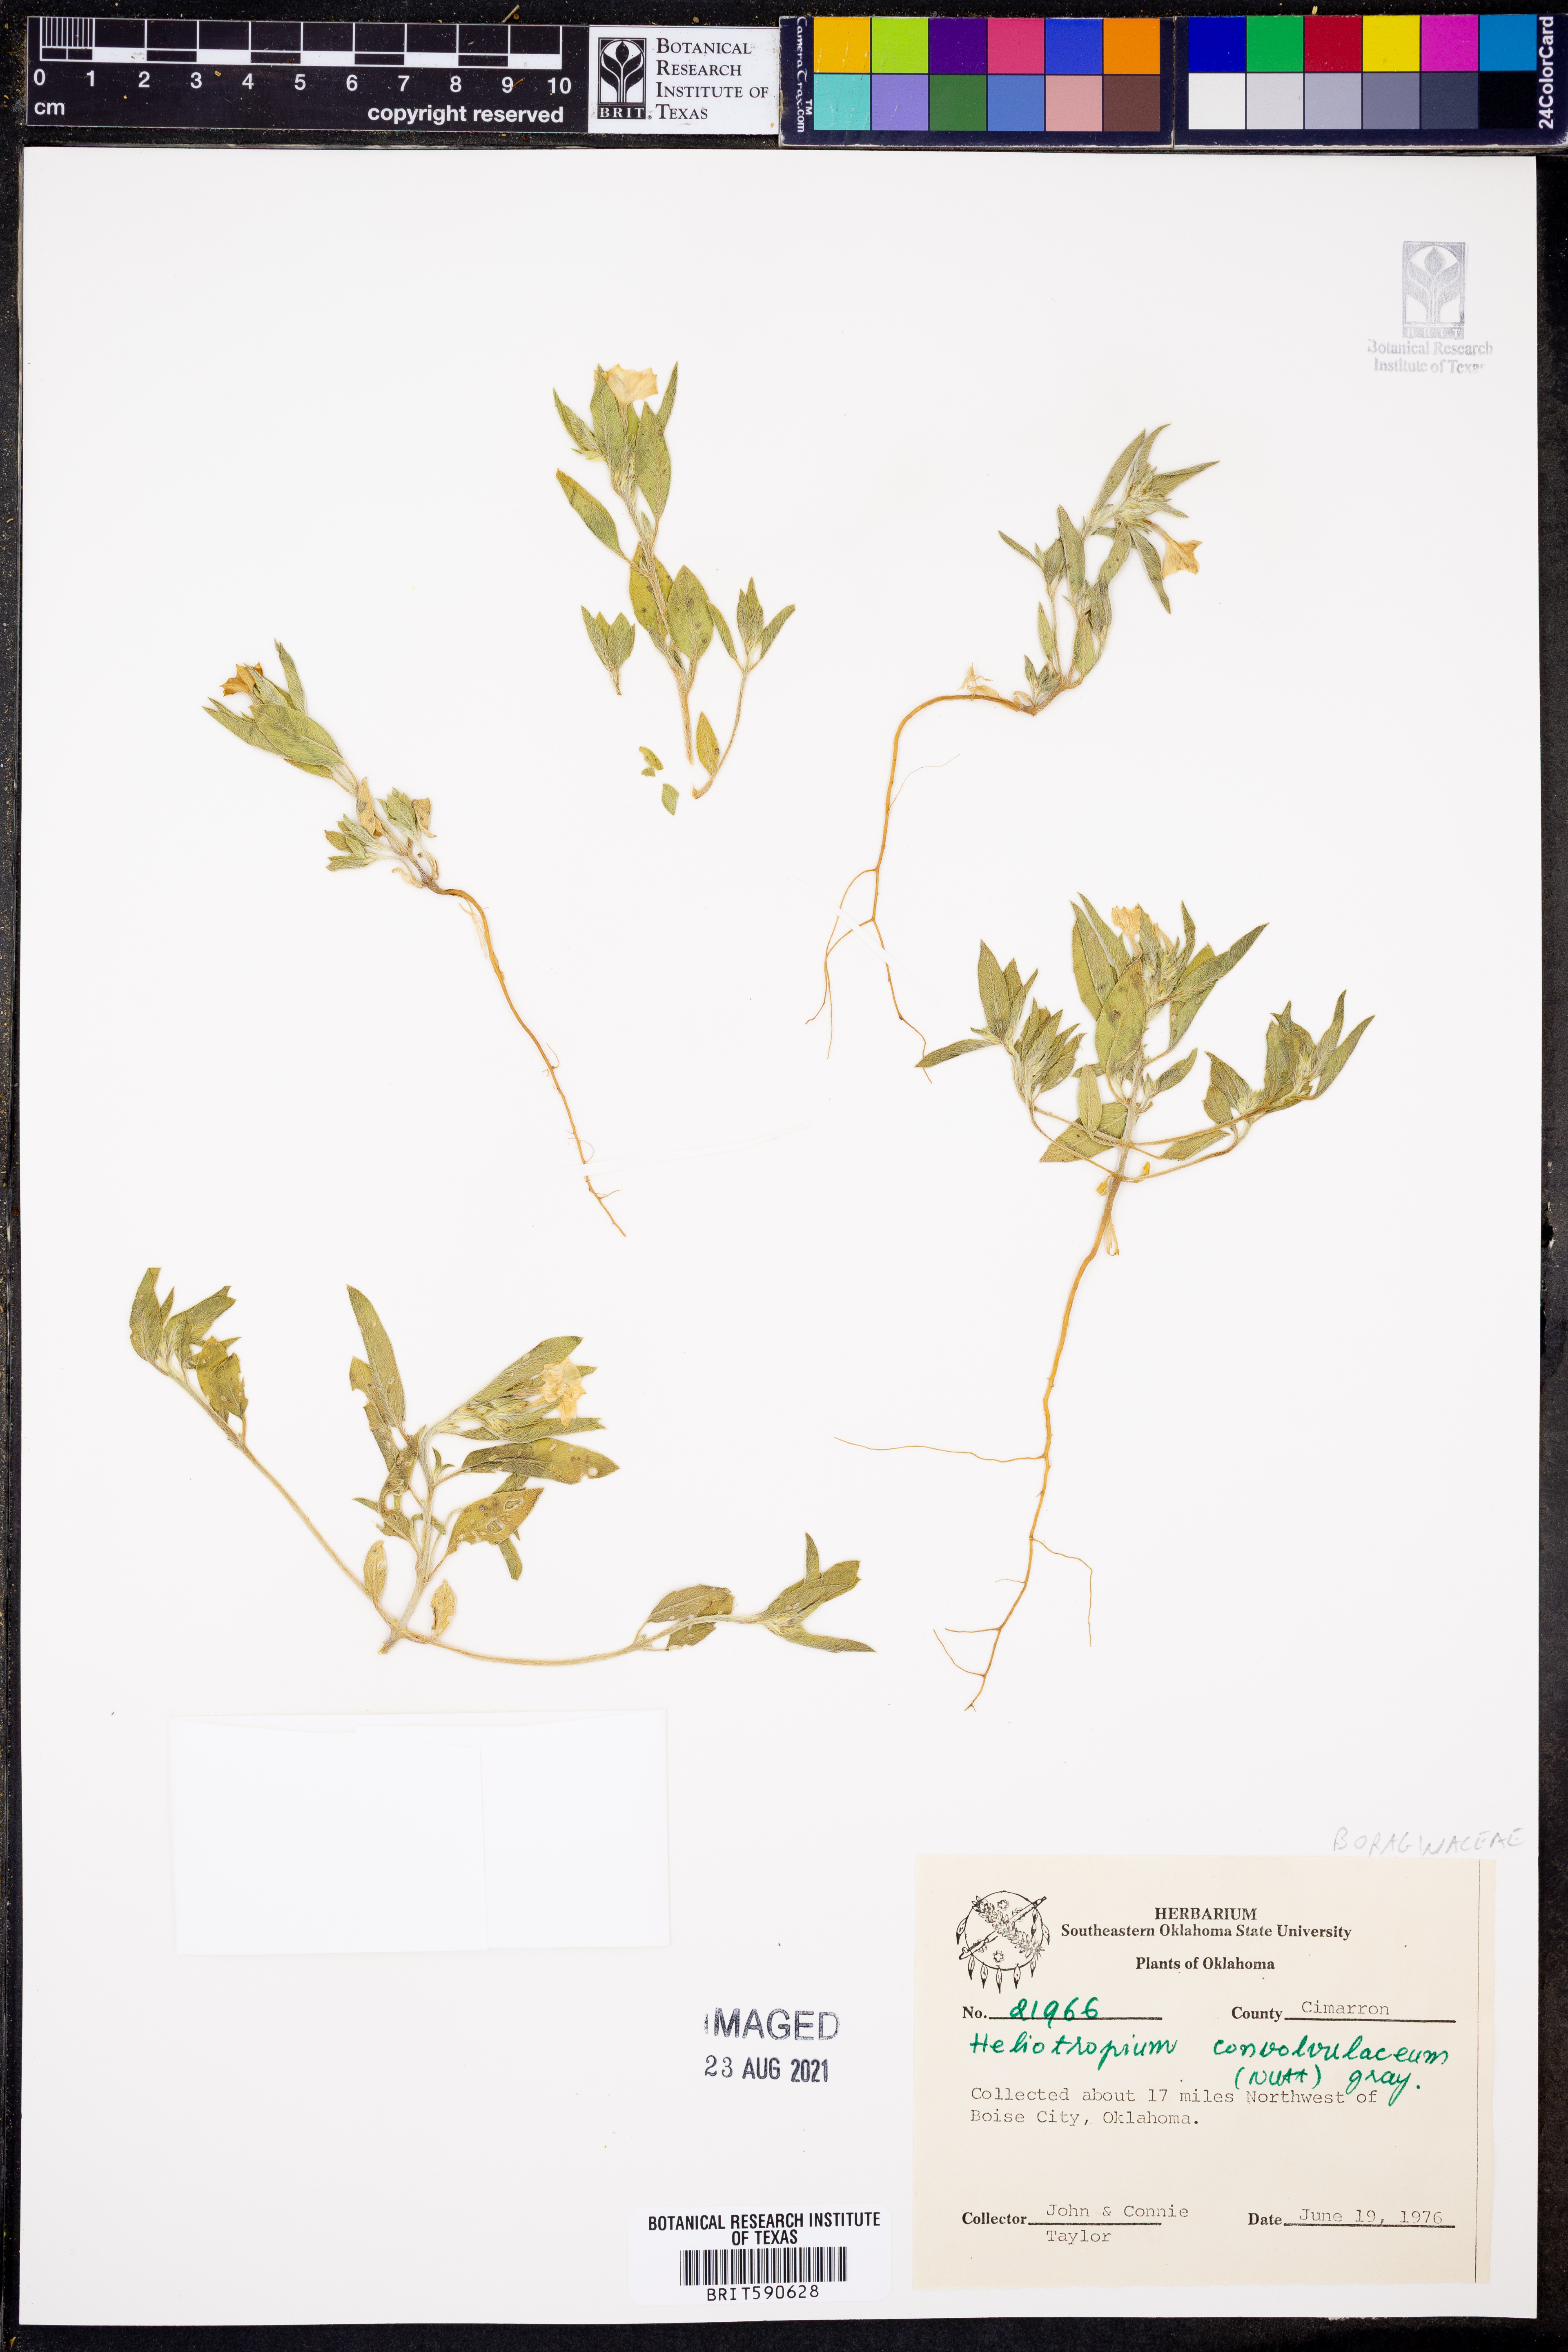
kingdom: Plantae
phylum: Tracheophyta
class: Magnoliopsida
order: Boraginales
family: Heliotropiaceae
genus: Euploca
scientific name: Euploca convolvulacea
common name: Bindweed heliotrope
